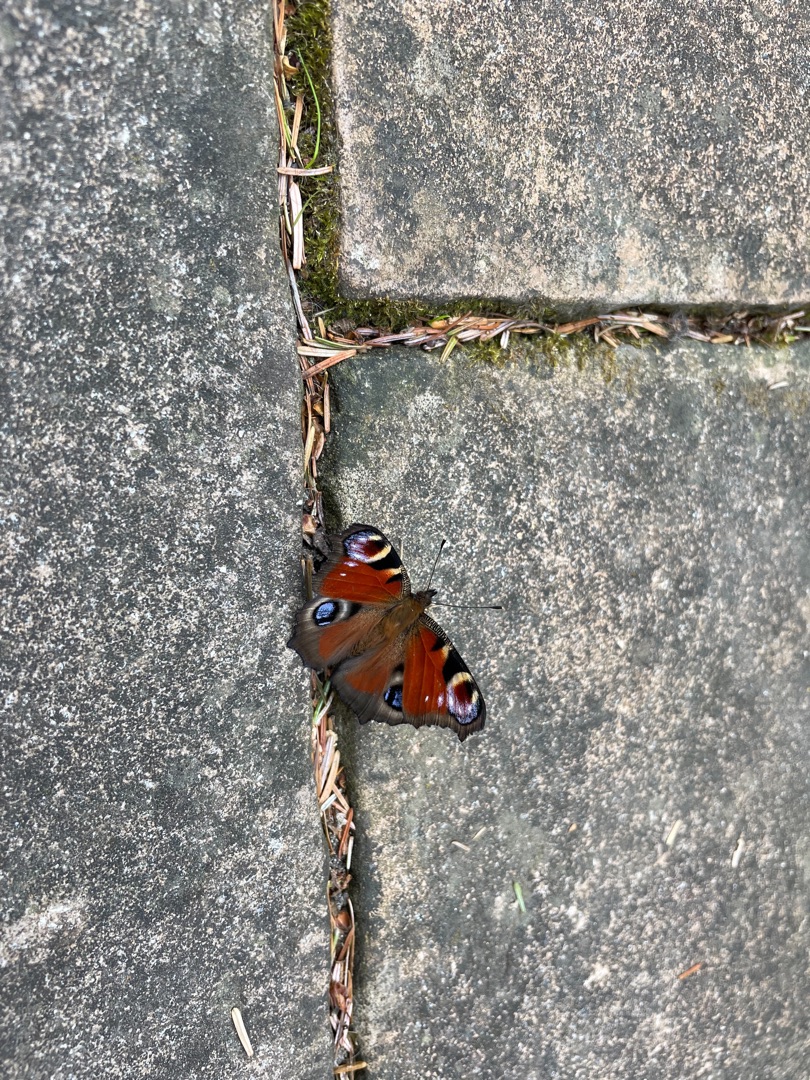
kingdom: Animalia
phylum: Arthropoda
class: Insecta
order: Lepidoptera
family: Nymphalidae
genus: Aglais
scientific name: Aglais io
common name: Dagpåfugleøje
